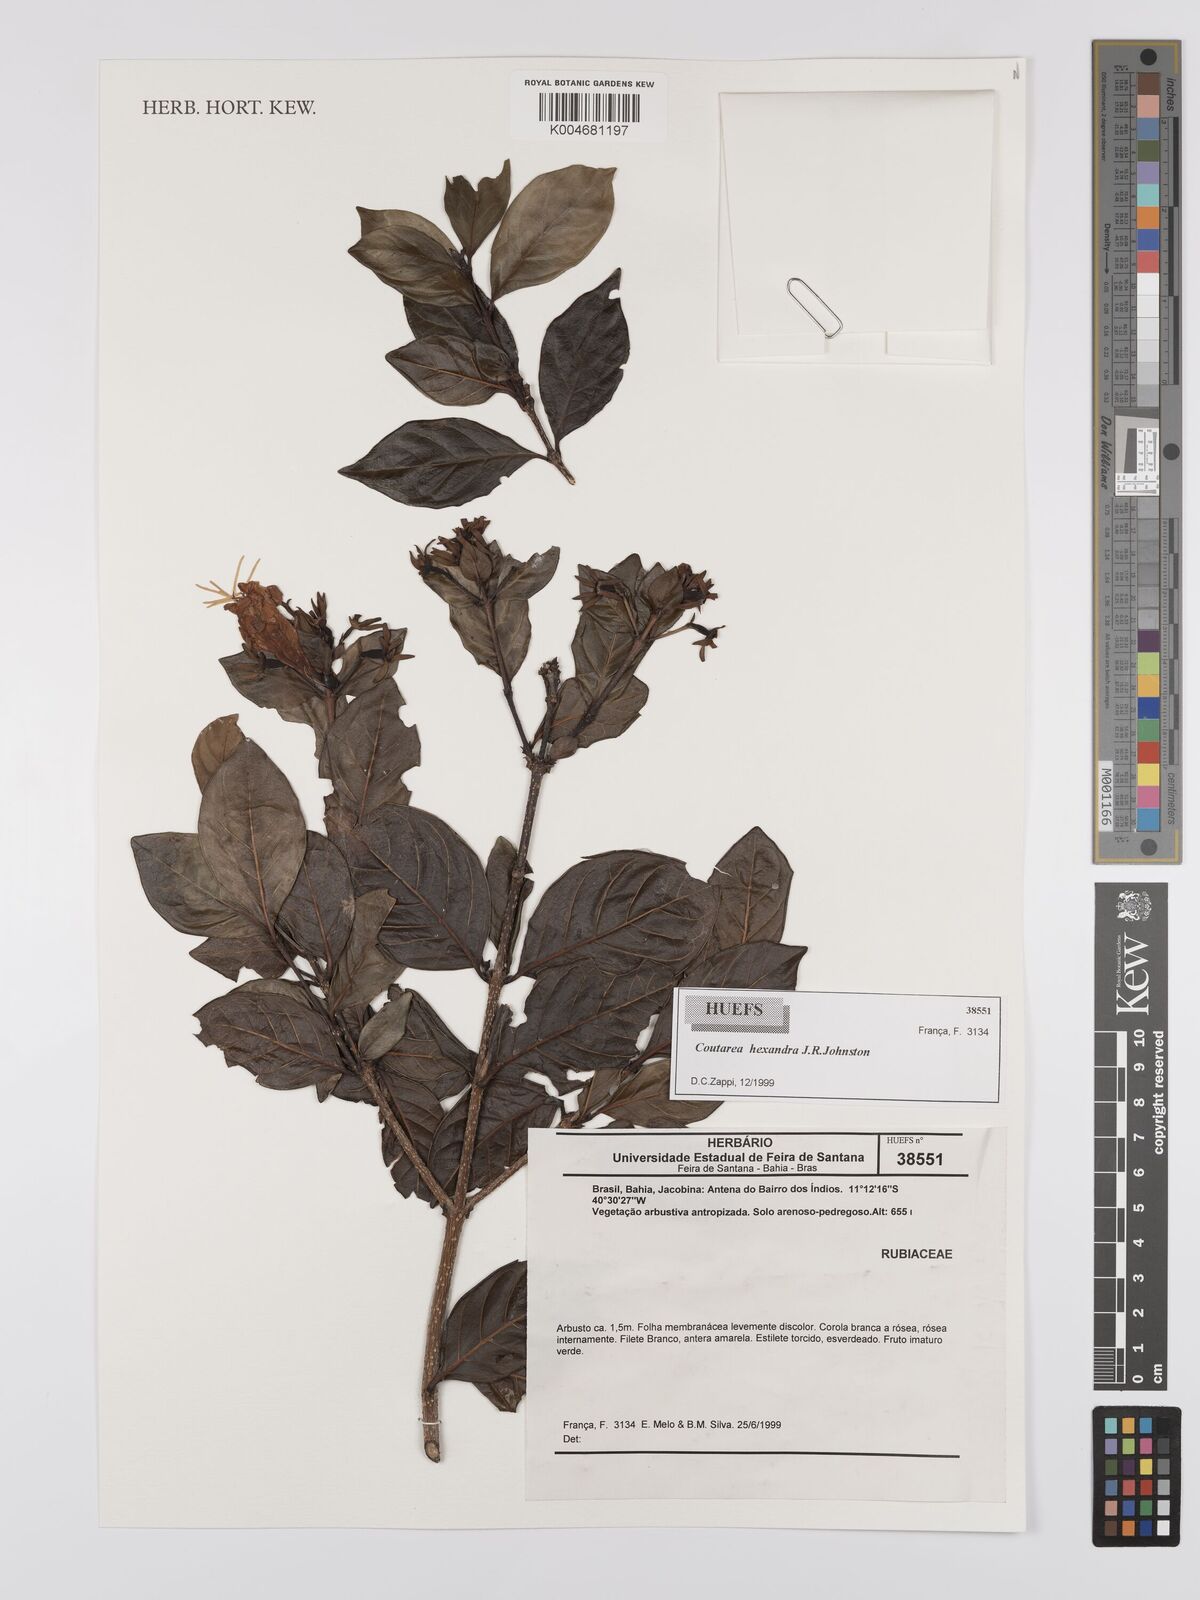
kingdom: Plantae
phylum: Tracheophyta
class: Magnoliopsida
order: Gentianales
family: Rubiaceae
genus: Coutarea
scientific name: Coutarea hexandra
